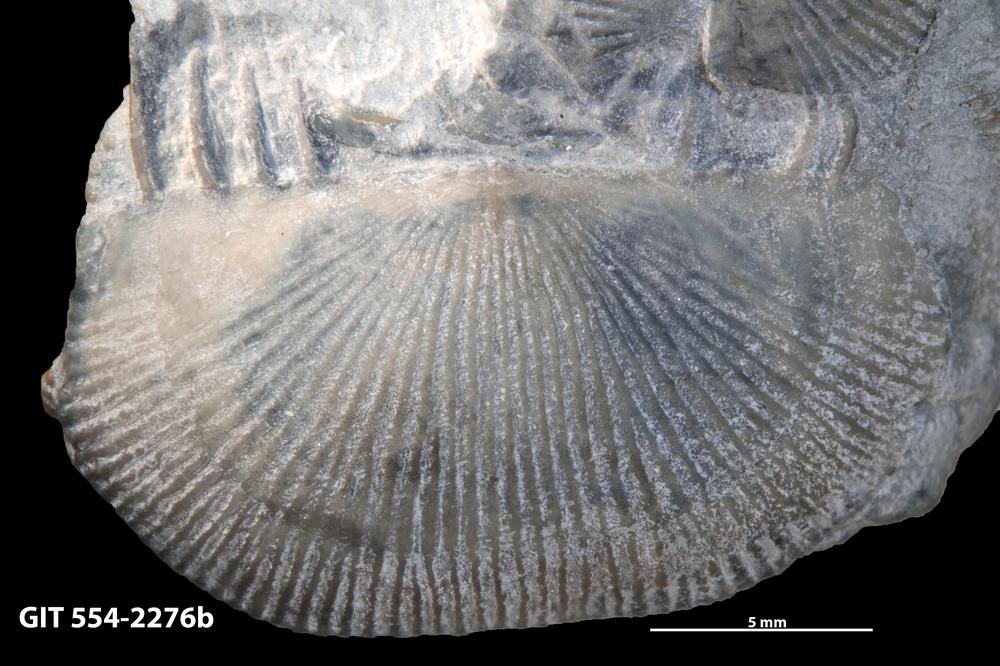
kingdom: Animalia
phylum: Brachiopoda
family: Strophochonetidae
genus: Protochonetes
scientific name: Protochonetes piltenensis
